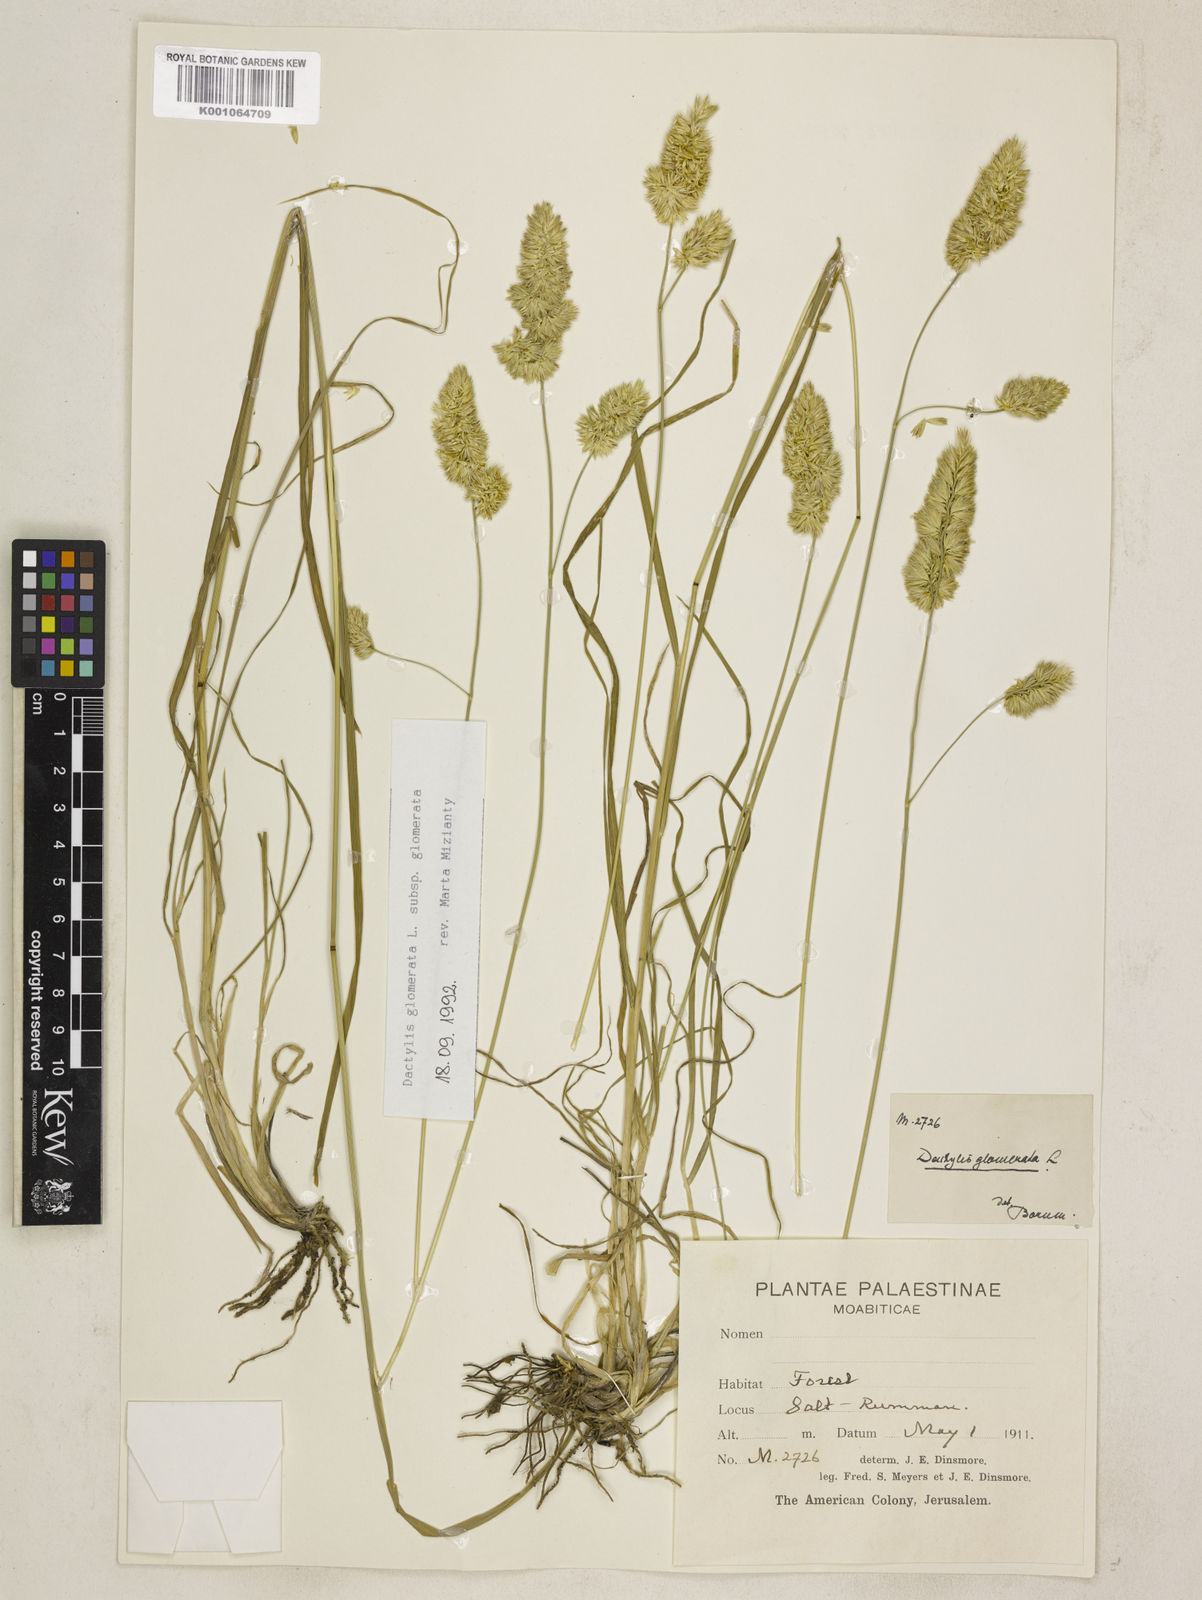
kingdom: Plantae
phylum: Tracheophyta
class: Liliopsida
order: Poales
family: Poaceae
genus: Dactylis
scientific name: Dactylis glomerata
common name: Orchardgrass
